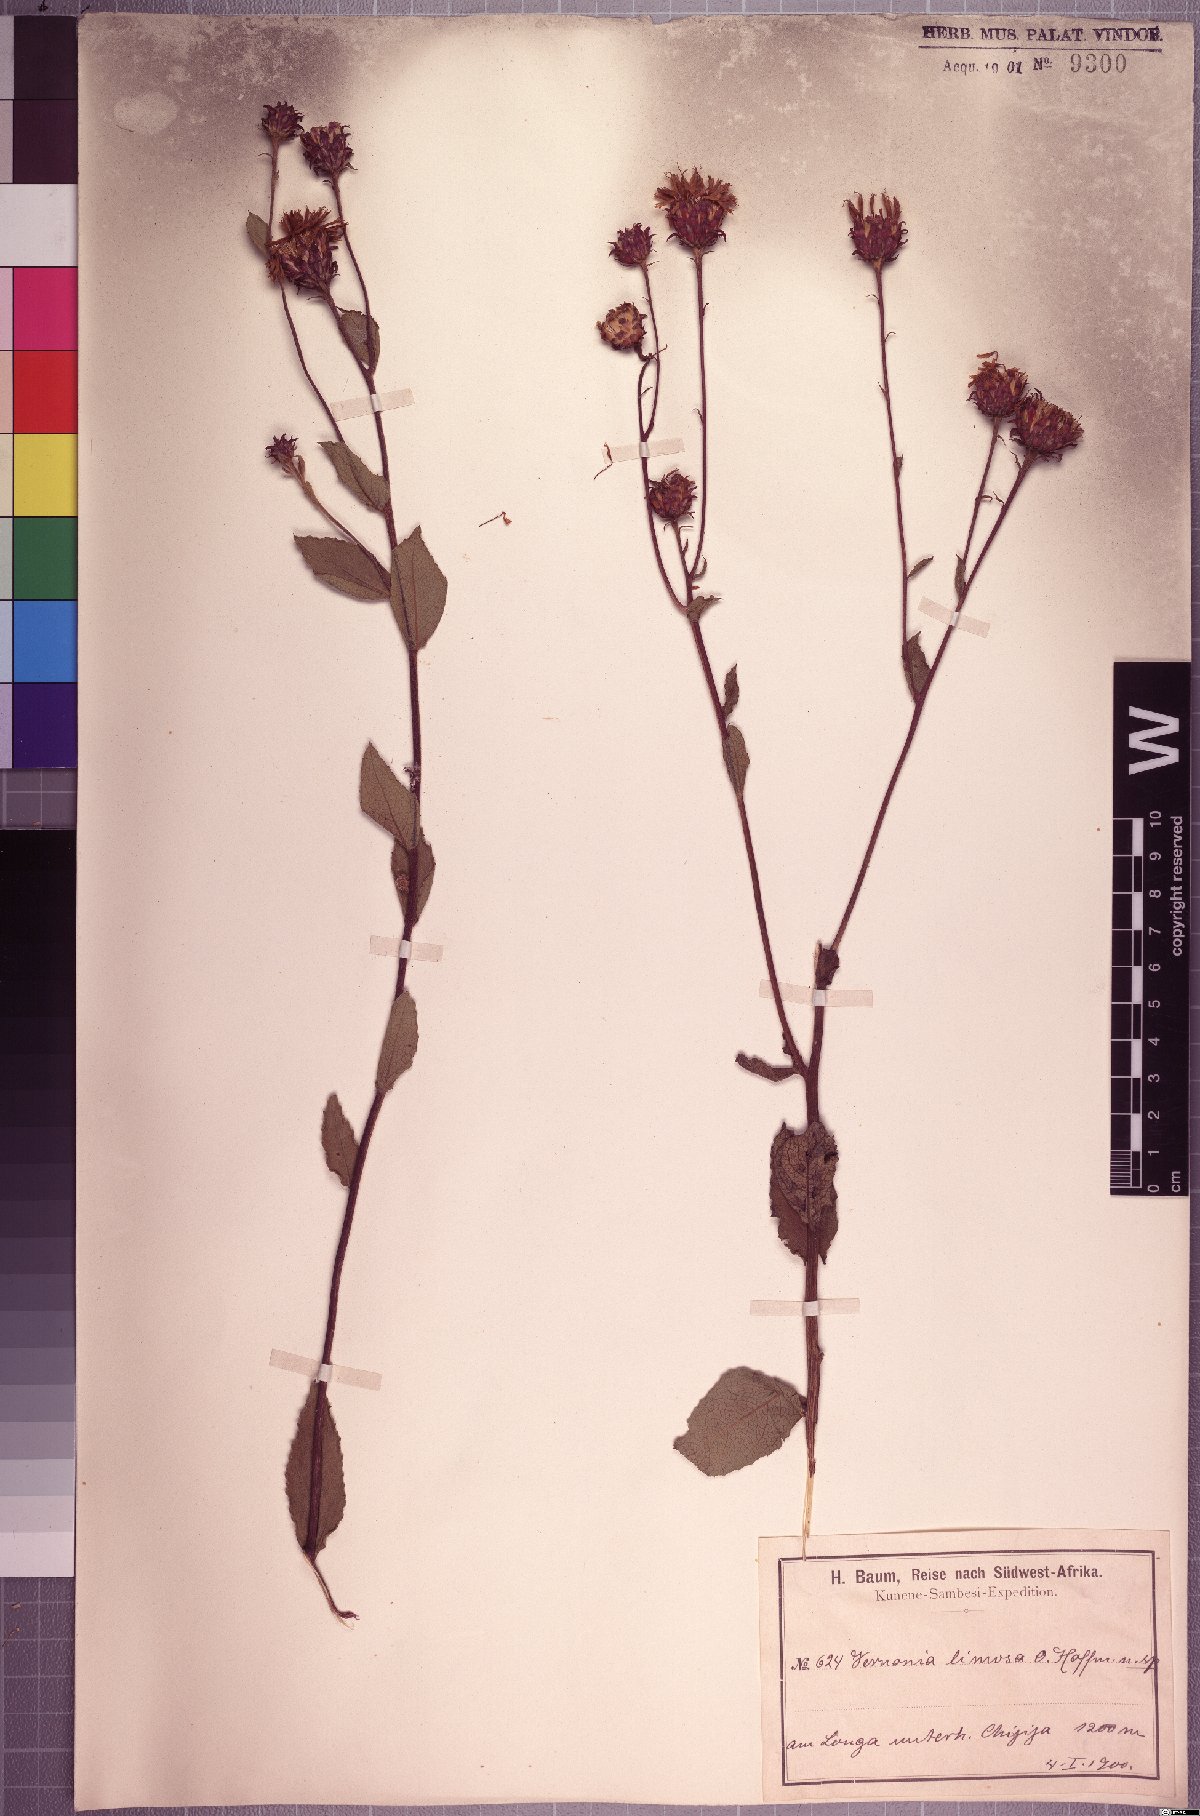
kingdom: Plantae
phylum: Tracheophyta
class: Magnoliopsida
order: Asterales
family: Asteraceae
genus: Baccharoides
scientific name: Baccharoides benguellensis
